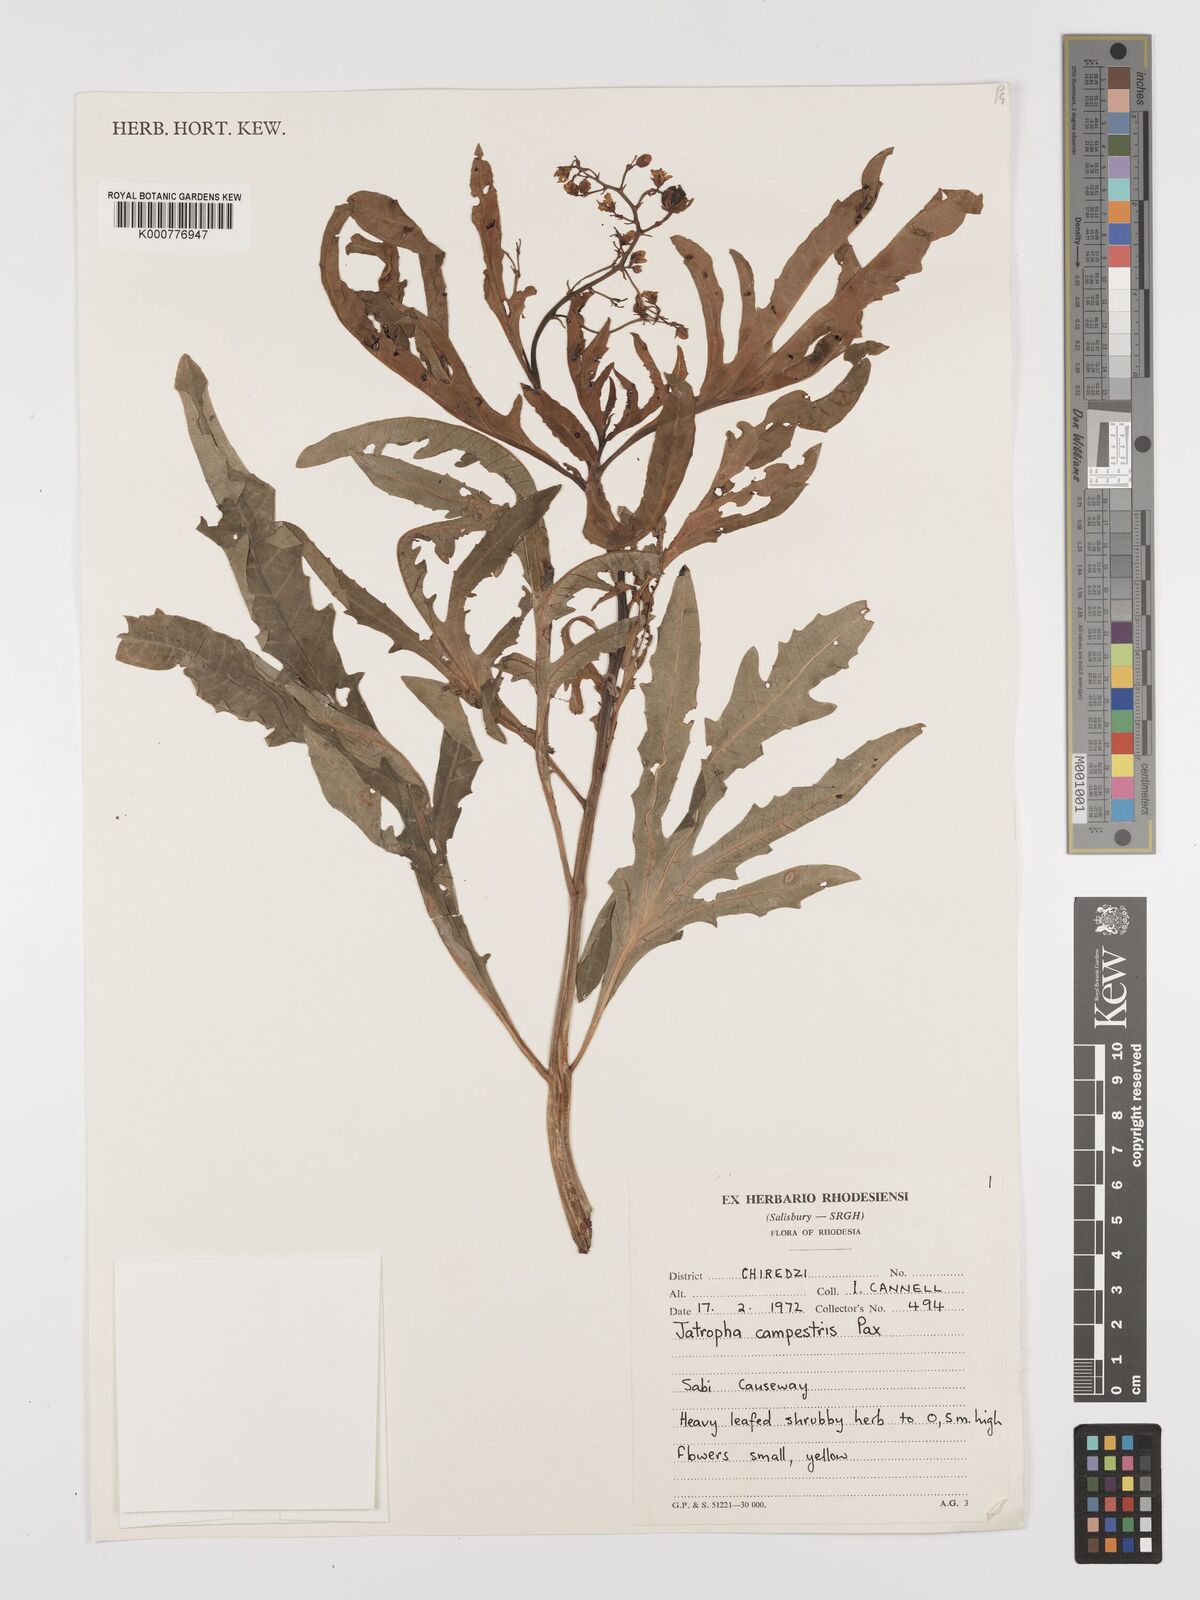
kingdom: Plantae
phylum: Tracheophyta
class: Magnoliopsida
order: Malpighiales
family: Euphorbiaceae
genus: Jatropha
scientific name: Jatropha campestris
